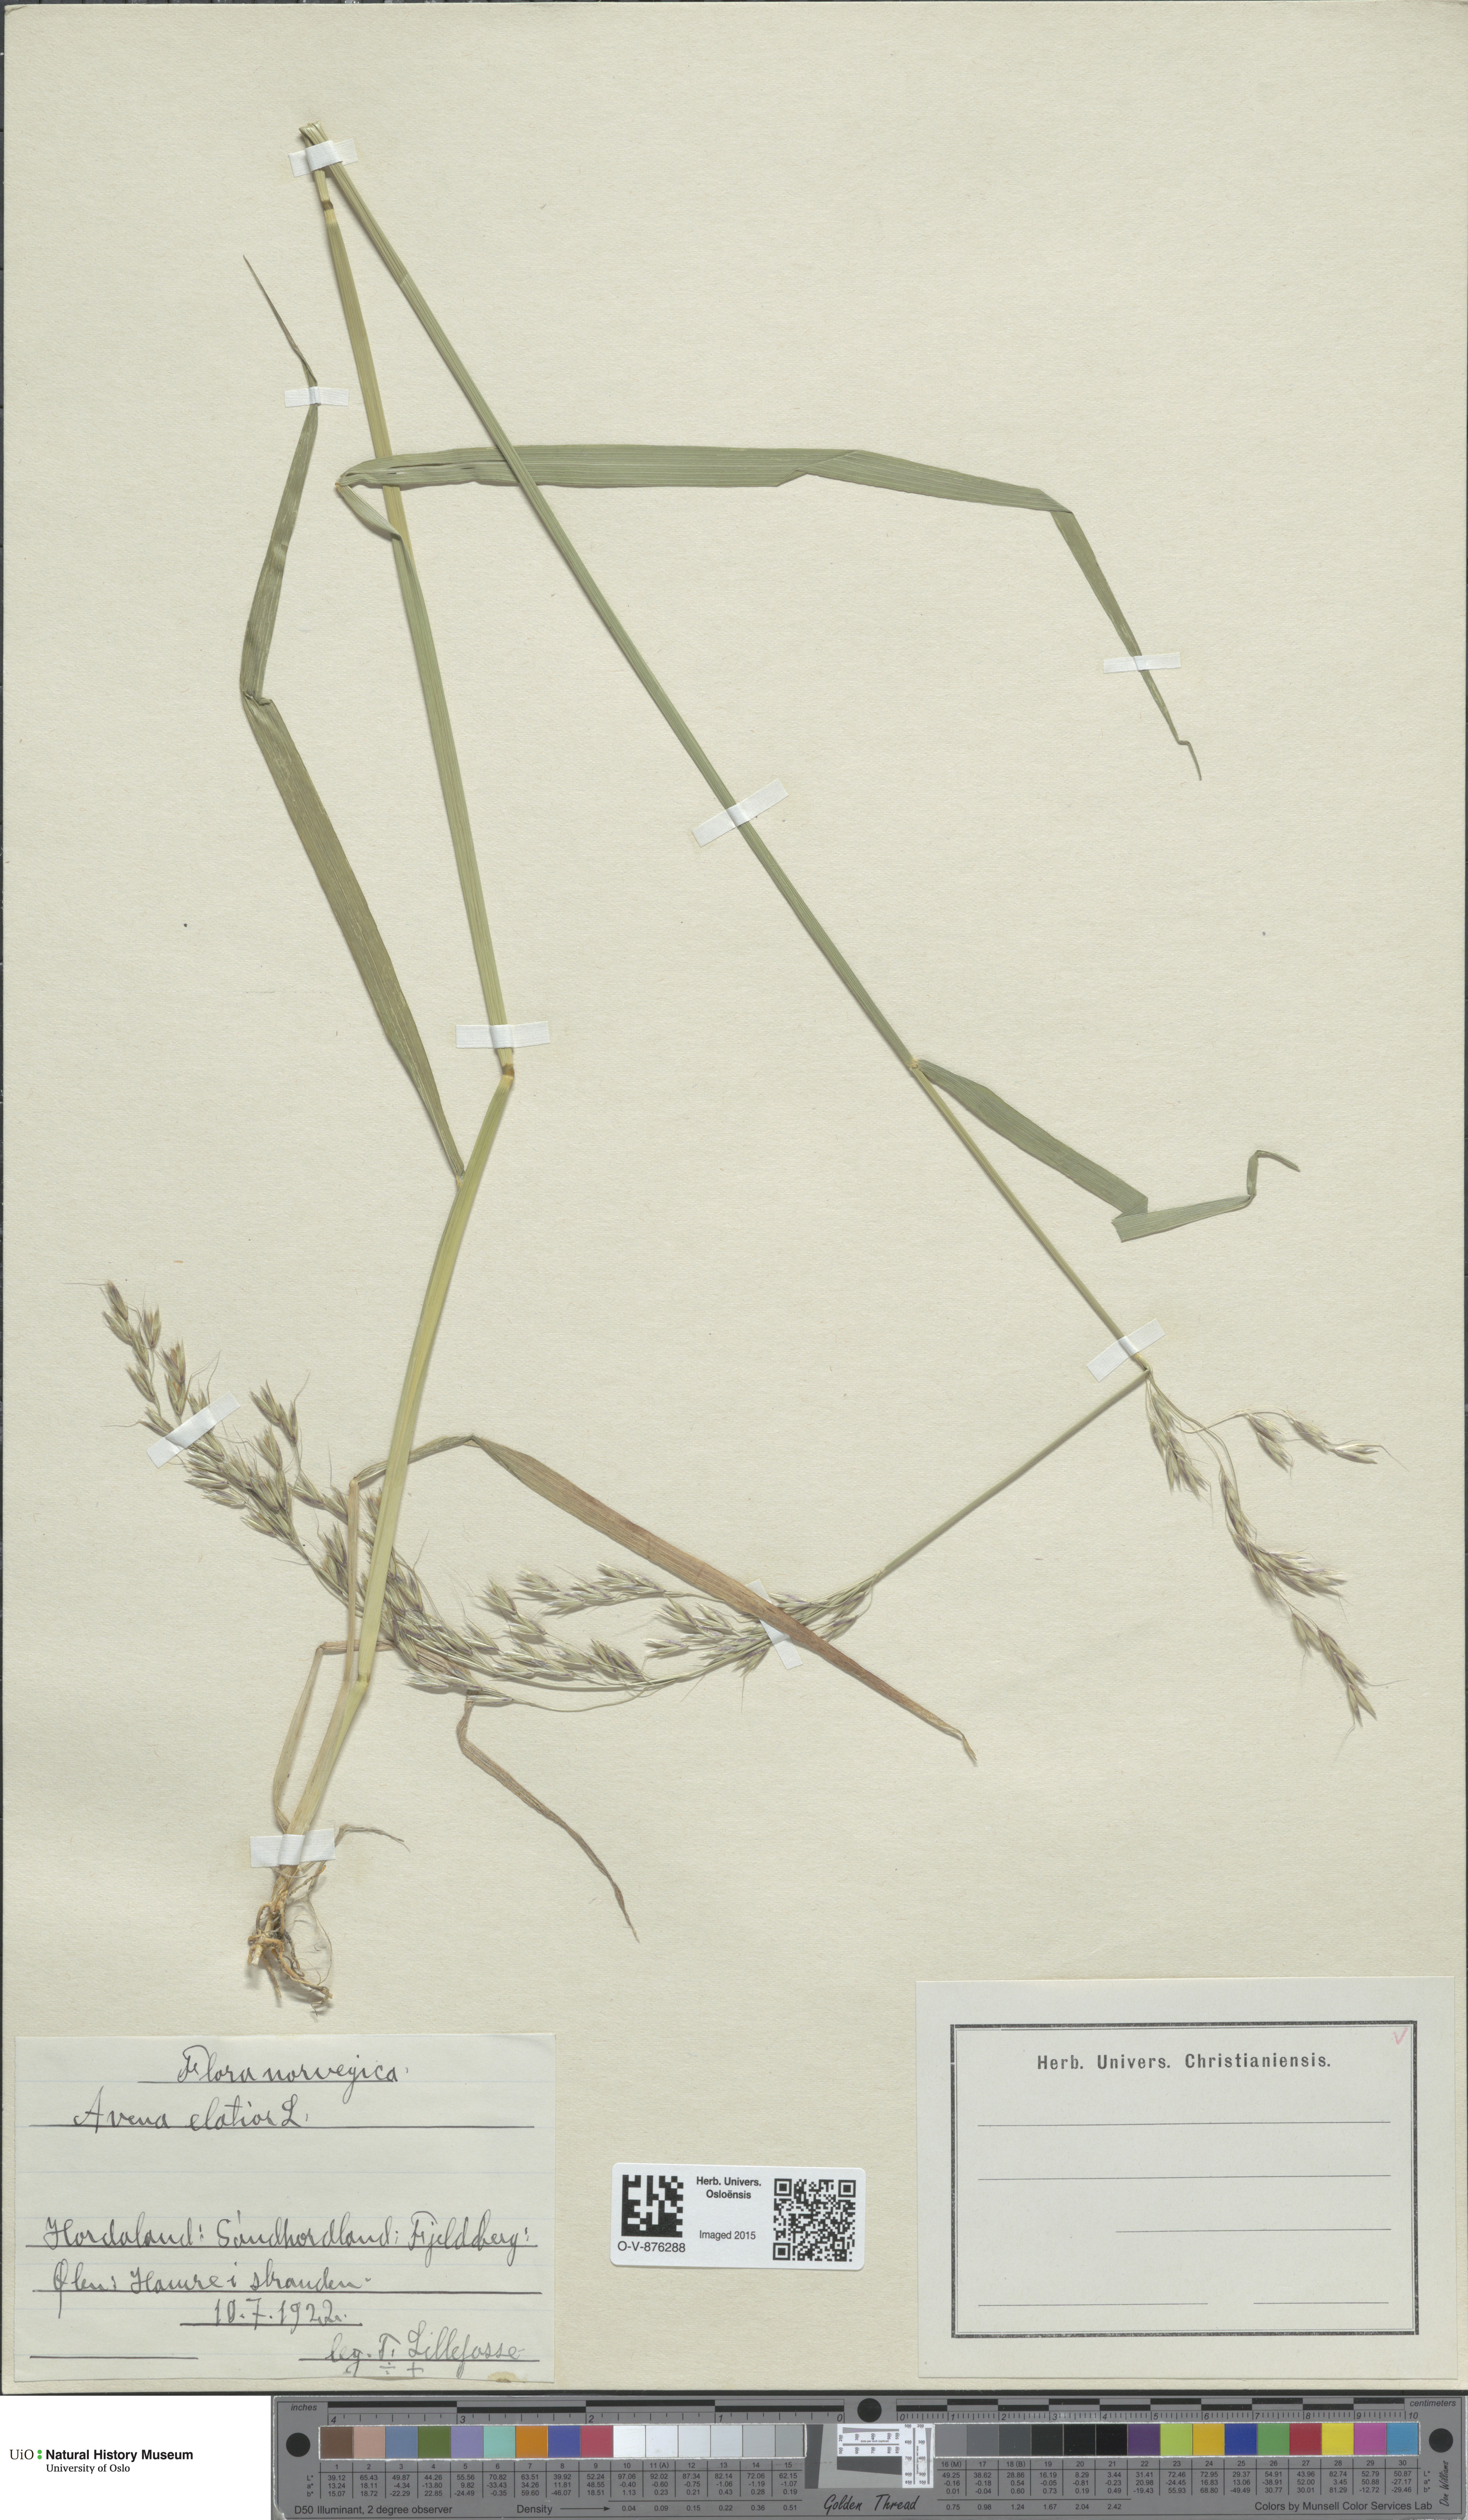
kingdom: Plantae
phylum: Tracheophyta
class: Liliopsida
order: Poales
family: Poaceae
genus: Arrhenatherum
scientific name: Arrhenatherum elatius
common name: Tall oatgrass
